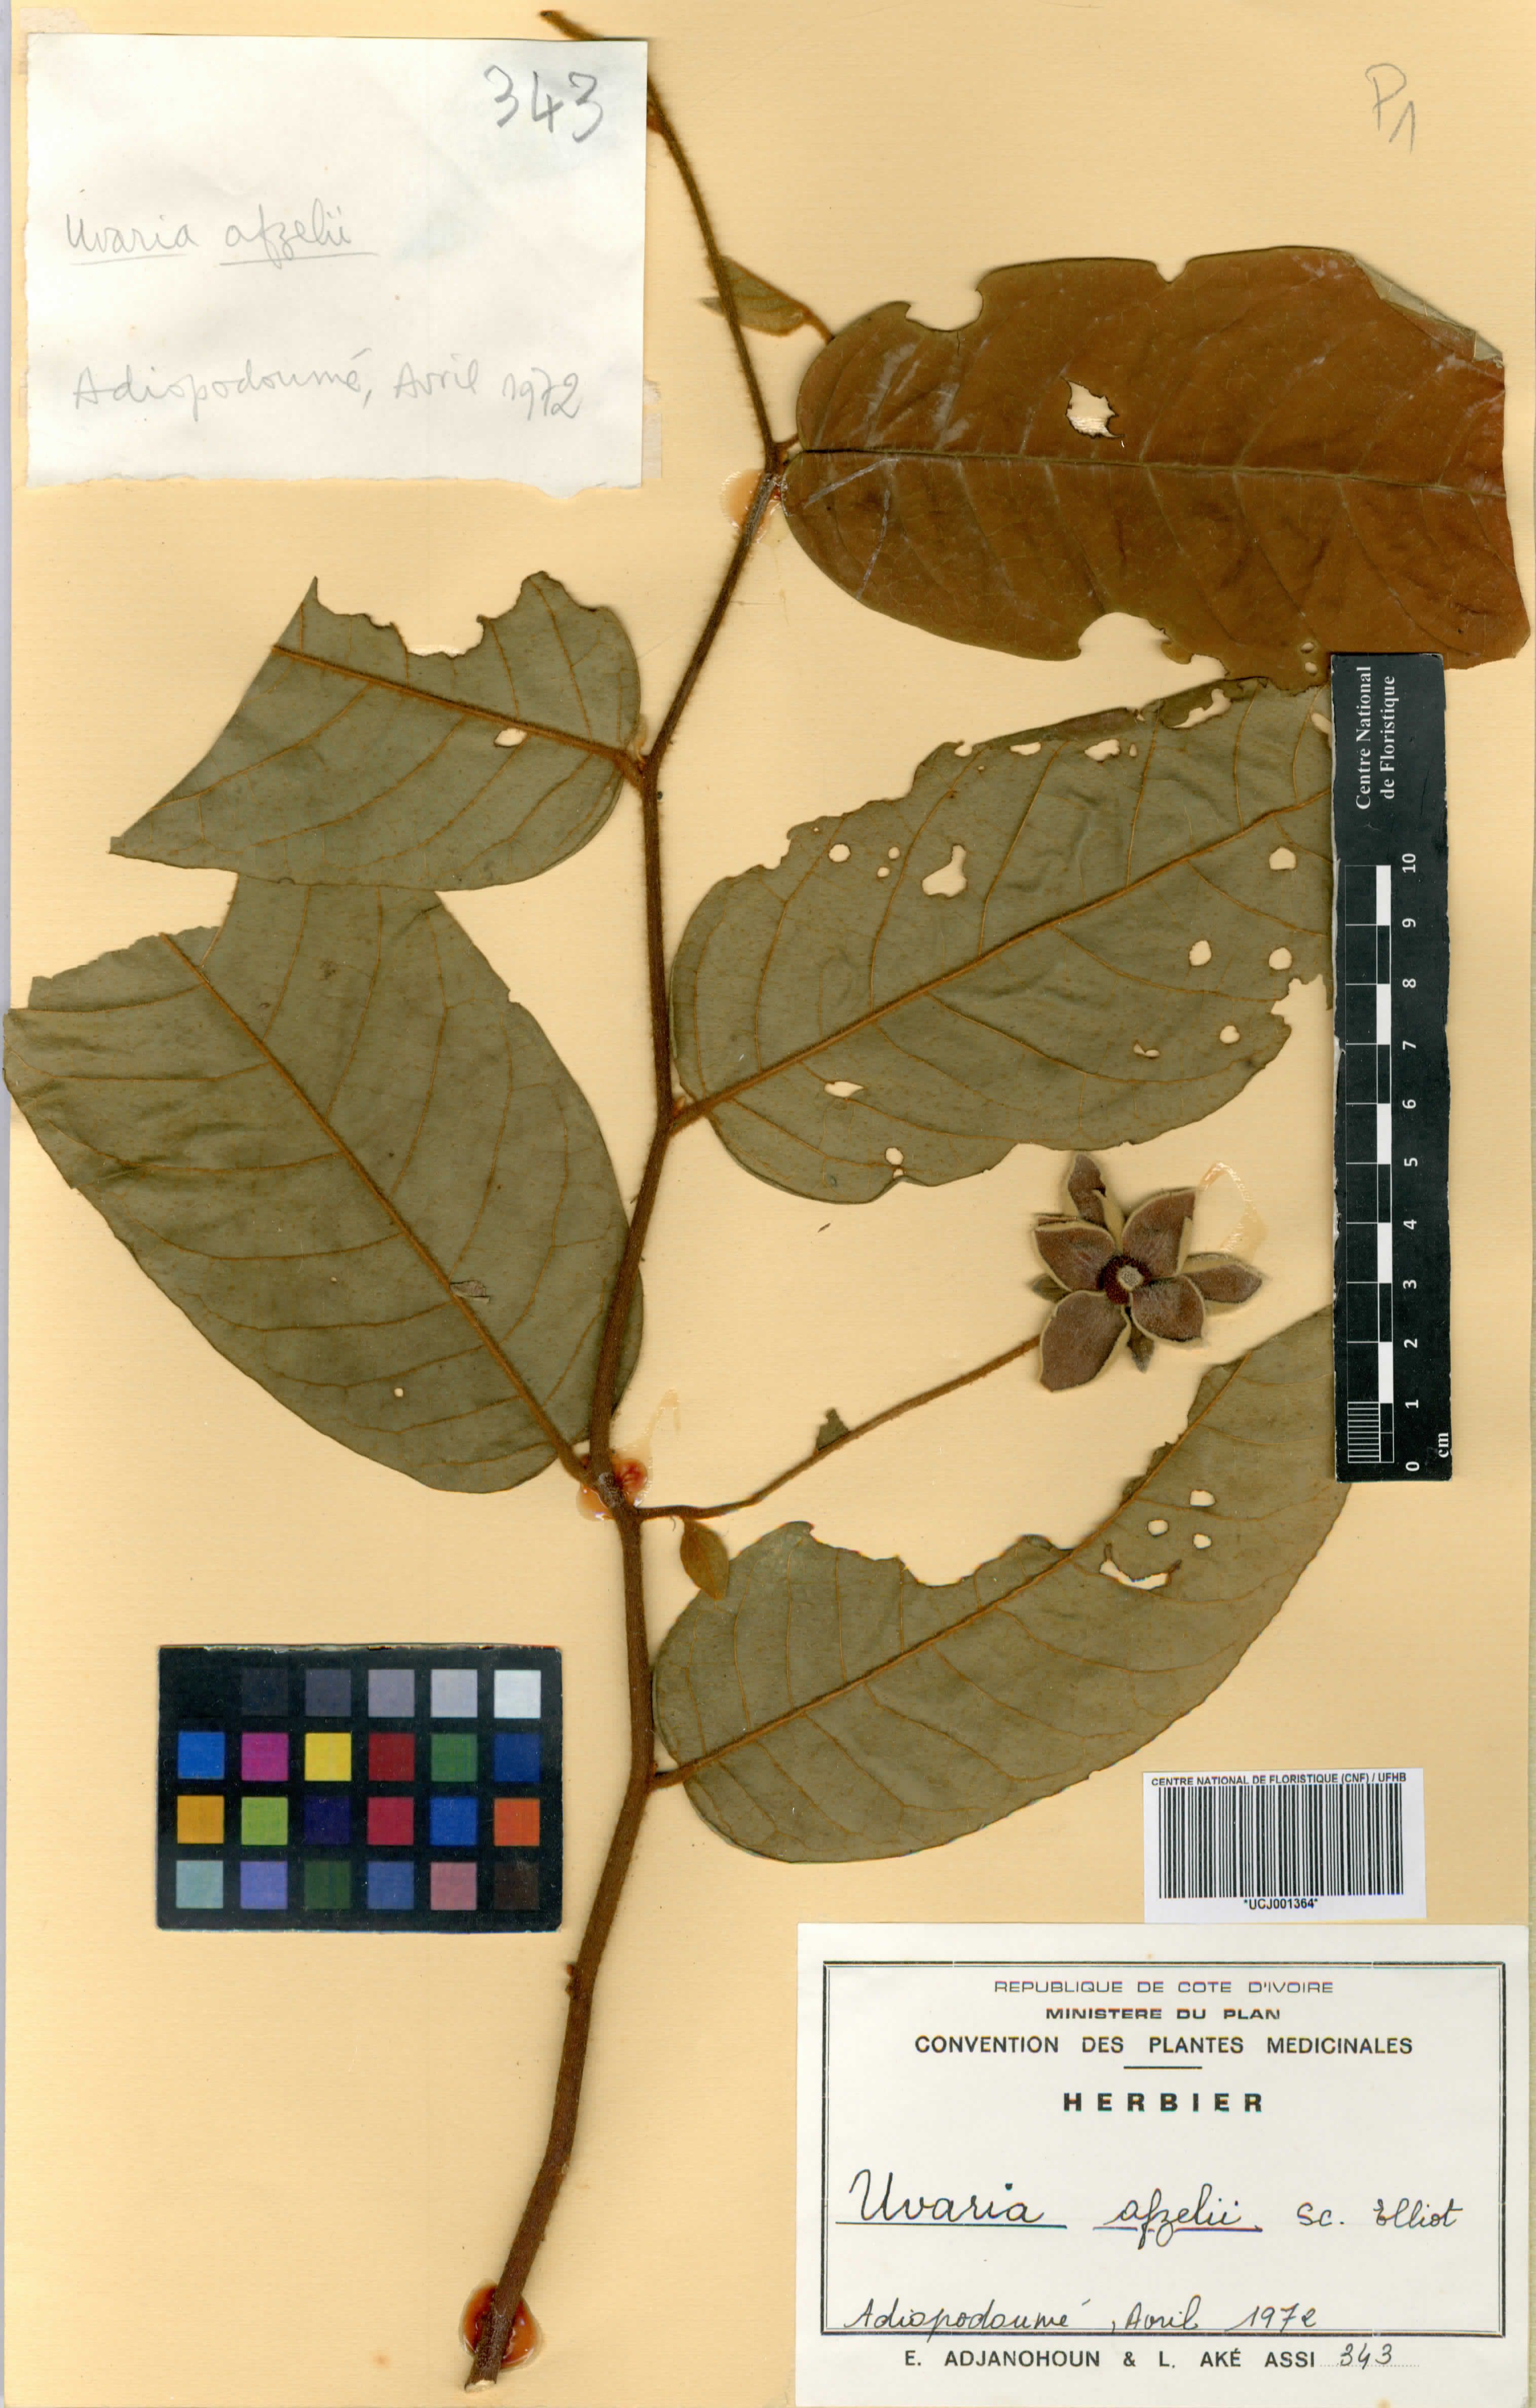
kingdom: Plantae
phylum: Tracheophyta
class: Magnoliopsida
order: Magnoliales
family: Annonaceae
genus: Uvaria
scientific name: Uvaria afzelii
